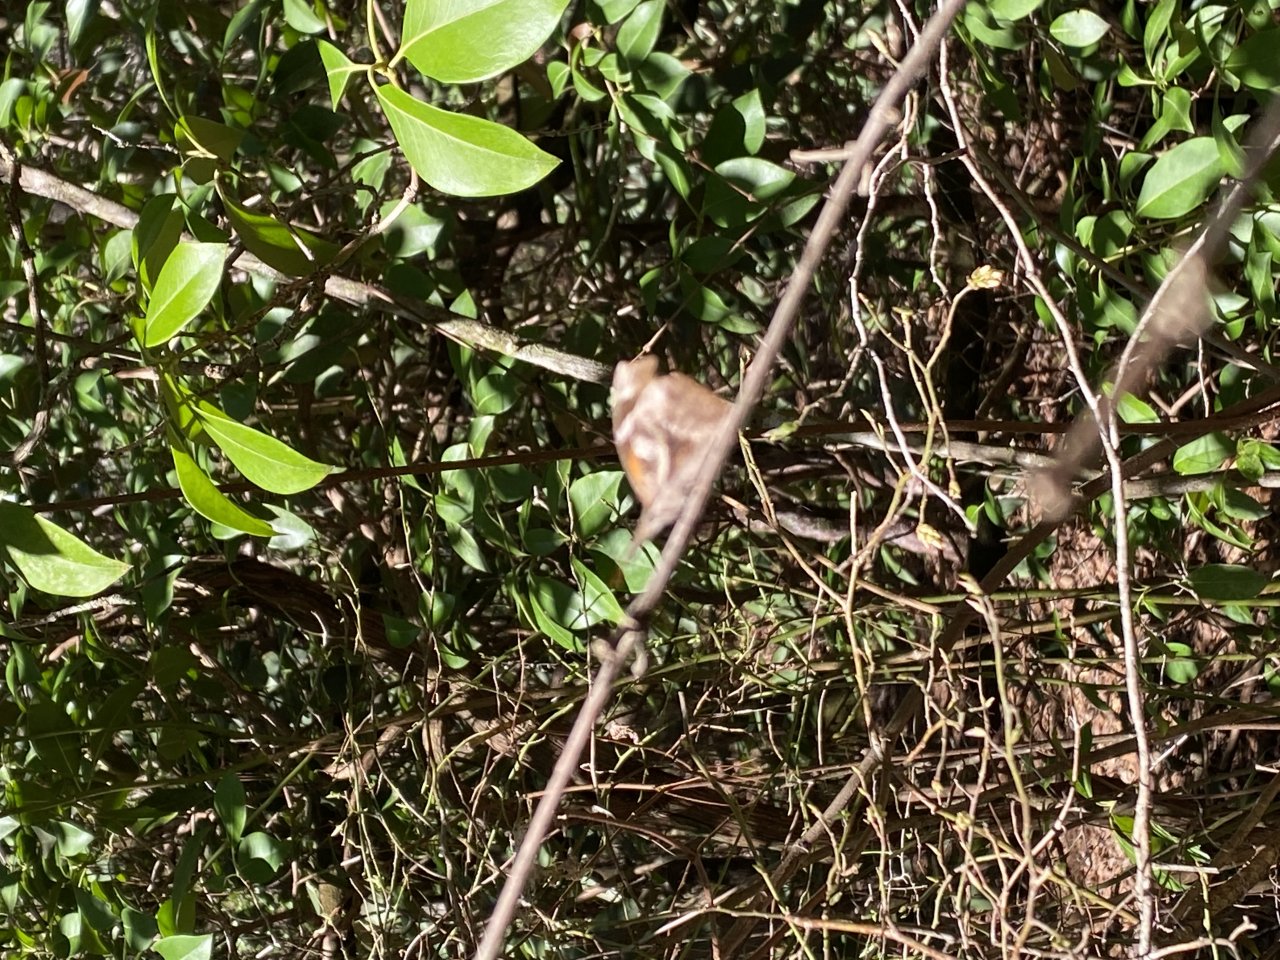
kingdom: Animalia
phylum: Arthropoda
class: Insecta
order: Lepidoptera
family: Nymphalidae
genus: Libytheana
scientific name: Libytheana carinenta
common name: American Snout
